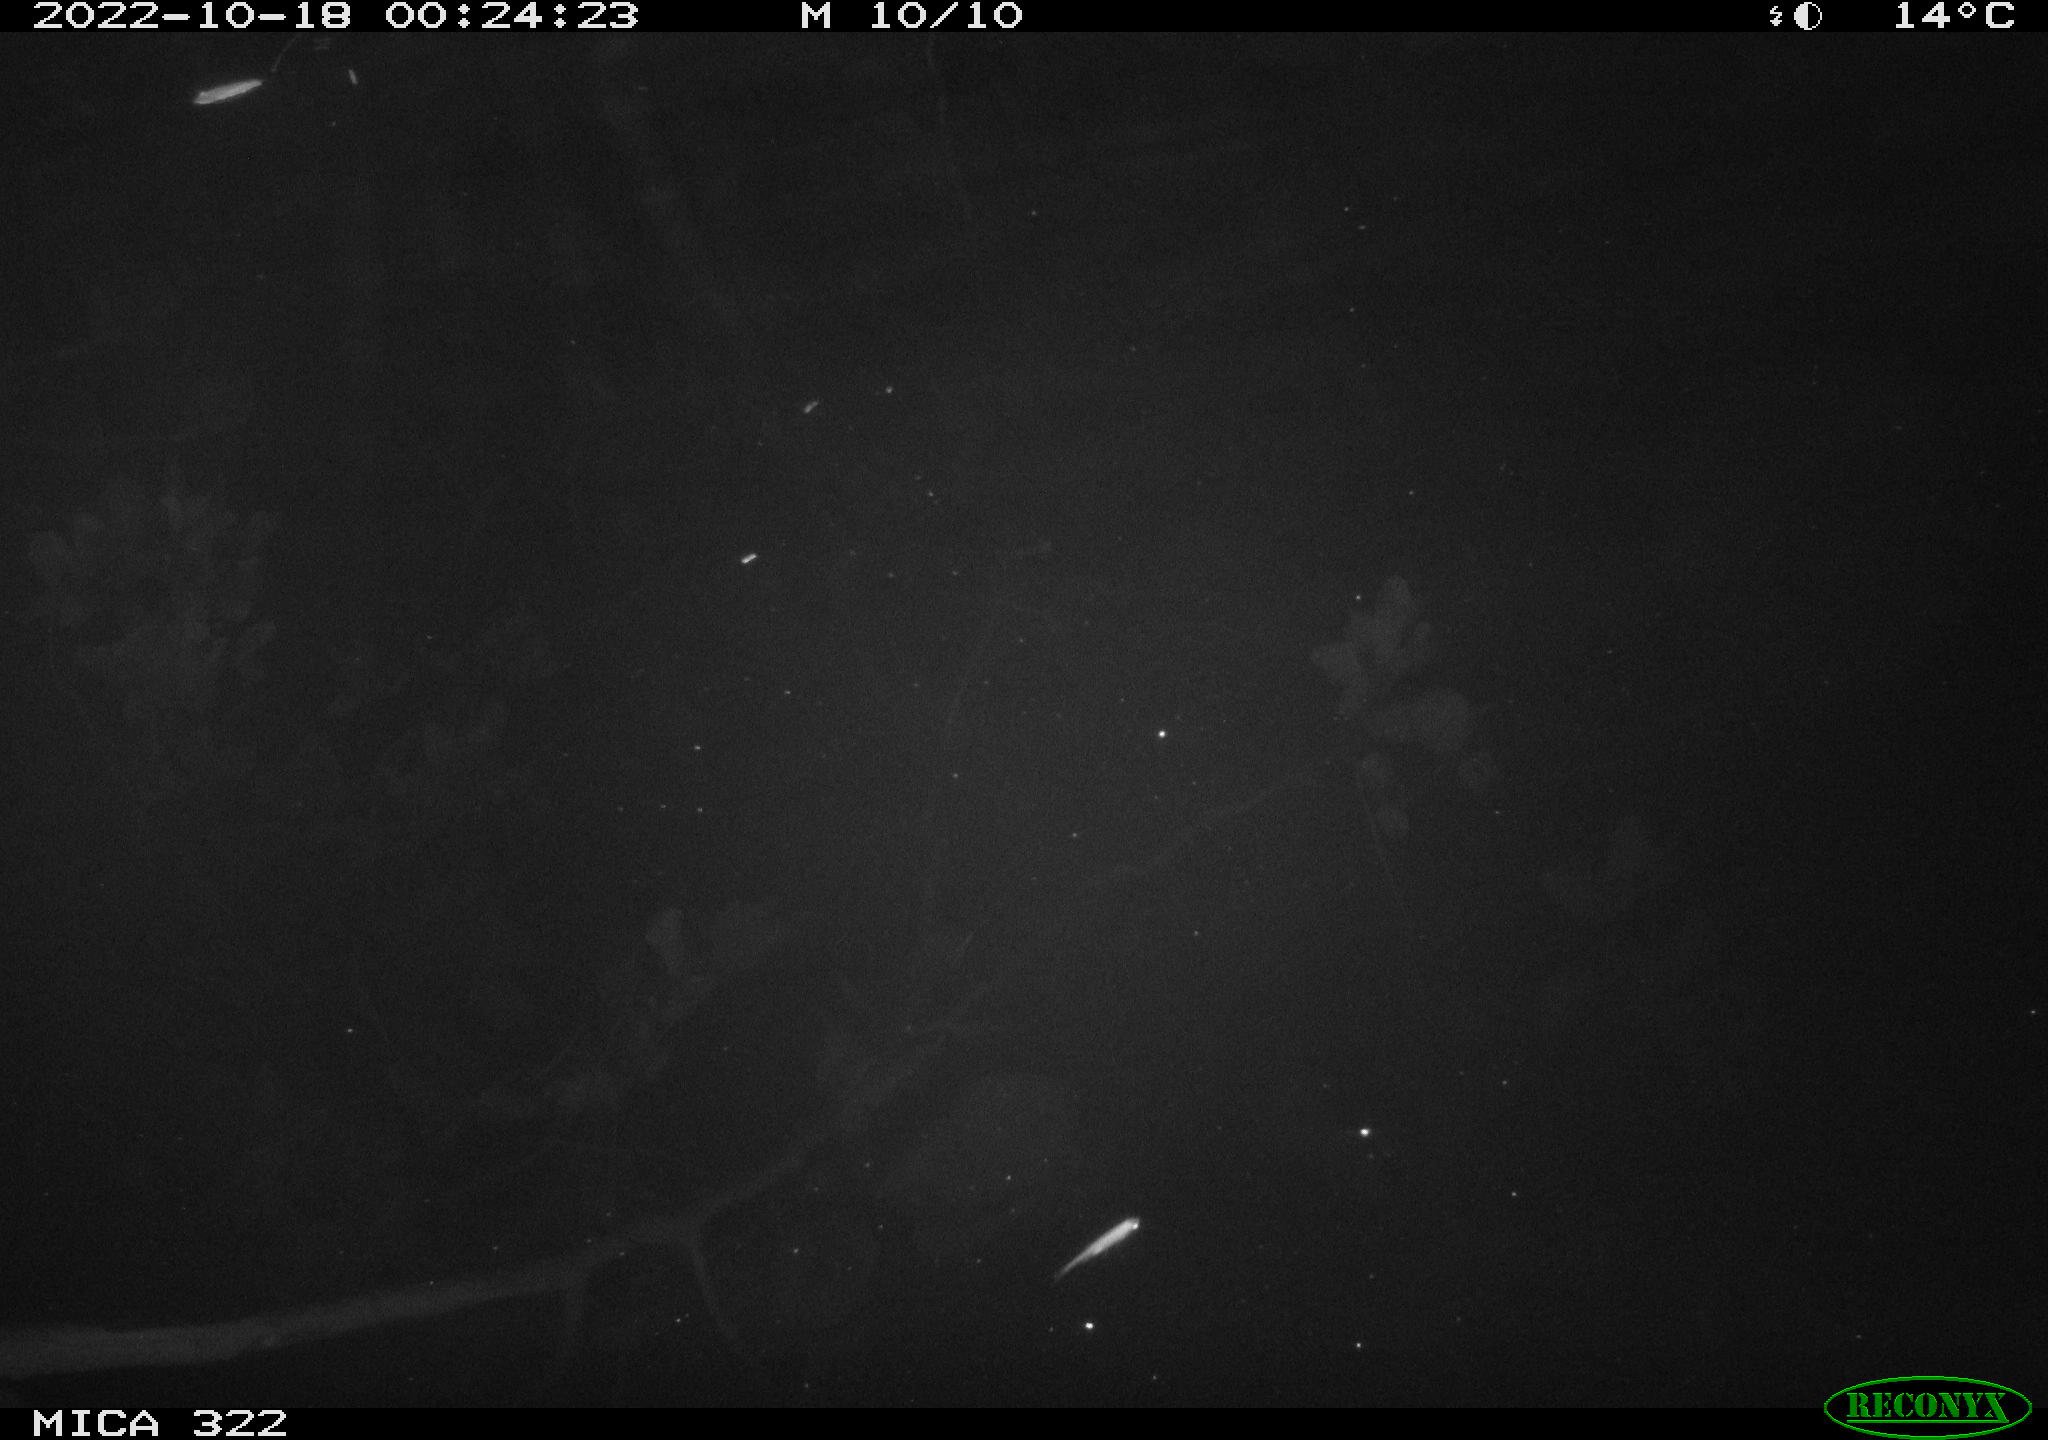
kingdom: Animalia
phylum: Chordata
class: Mammalia
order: Rodentia
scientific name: Rodentia
